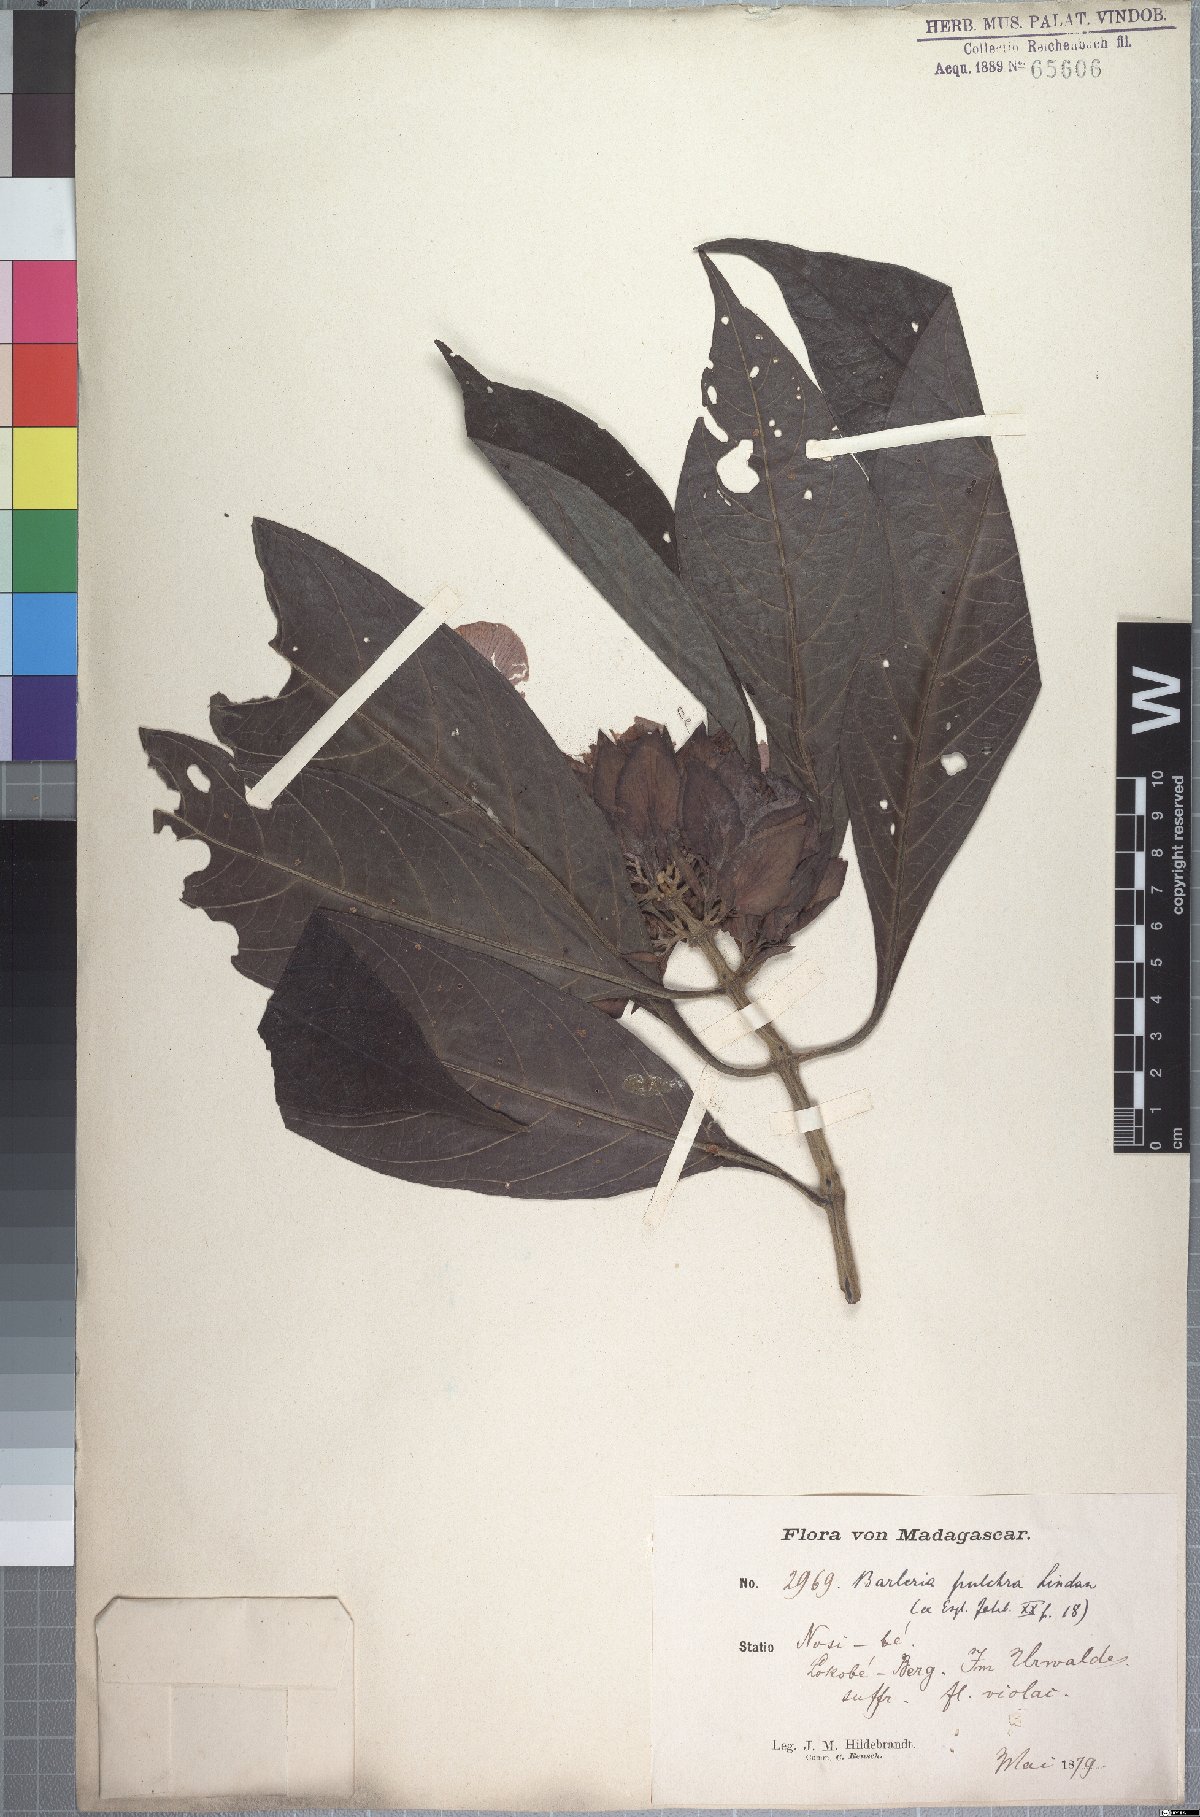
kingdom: Plantae
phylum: Tracheophyta
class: Magnoliopsida
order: Lamiales
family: Acanthaceae
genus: Barleria
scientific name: Barleria pulchra
